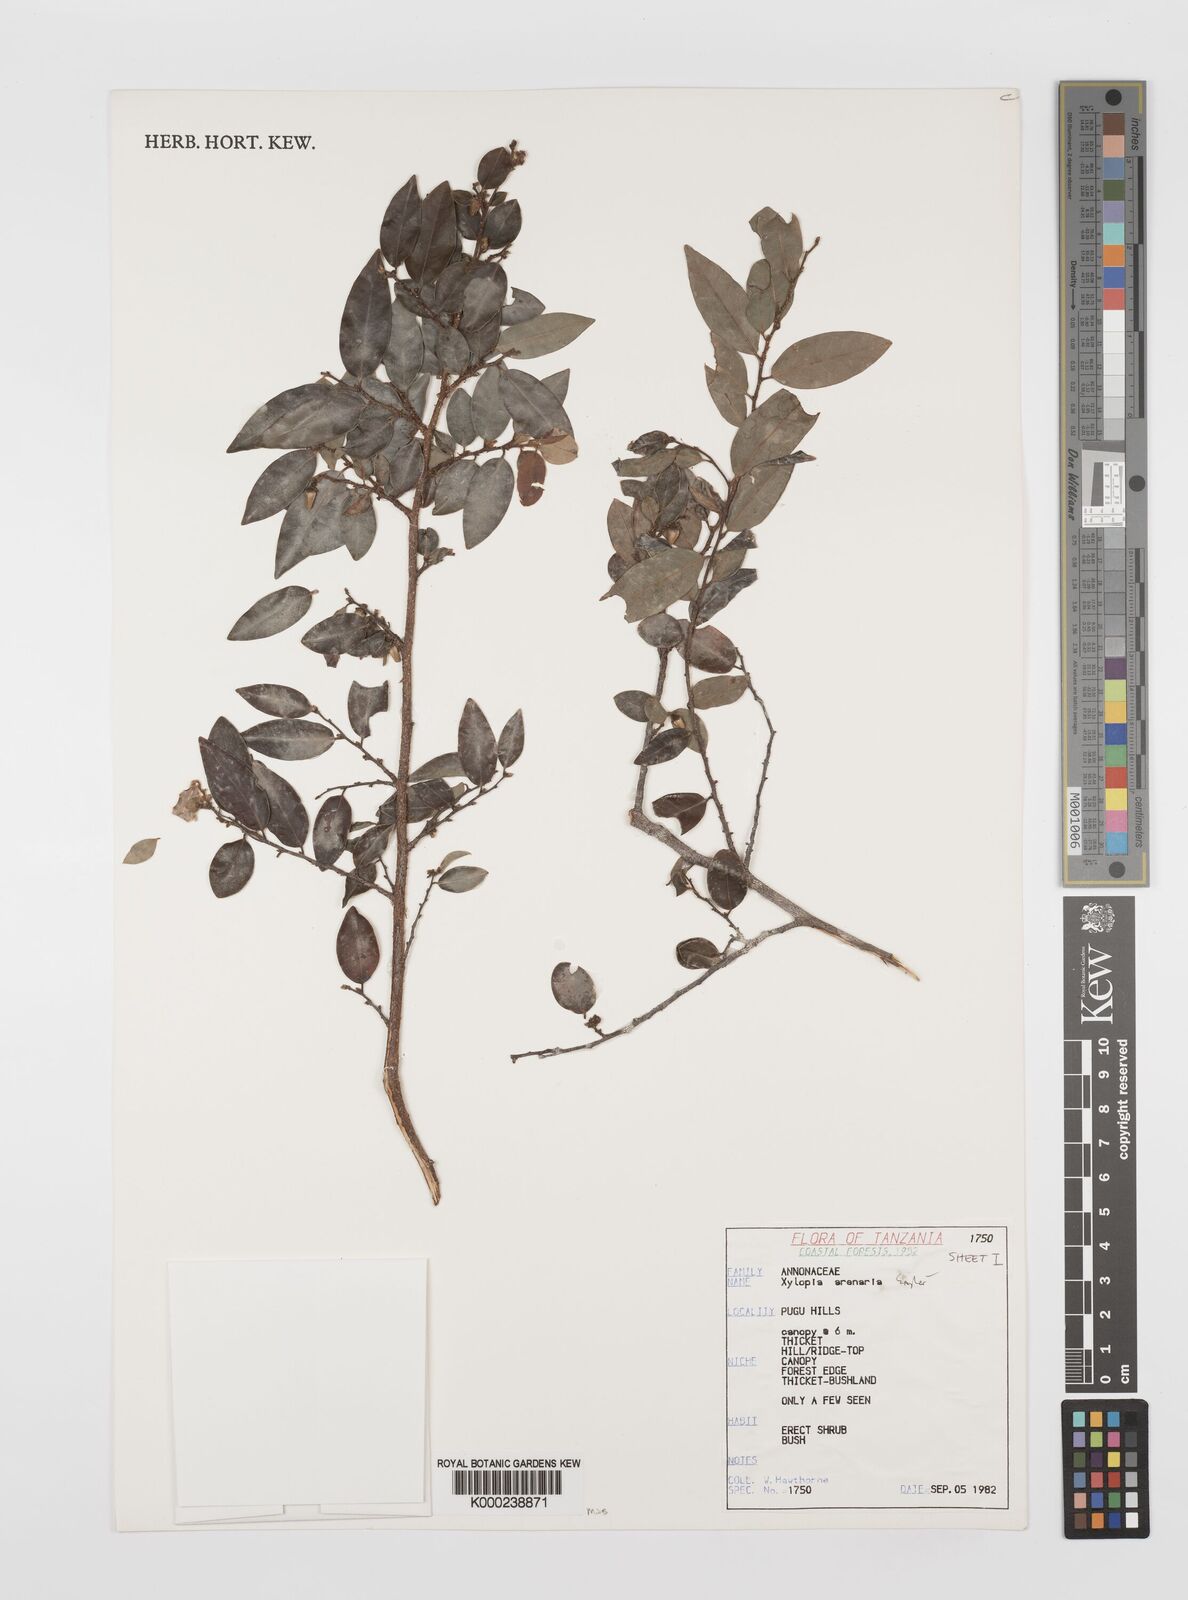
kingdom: Plantae
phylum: Tracheophyta
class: Magnoliopsida
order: Magnoliales
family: Annonaceae
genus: Xylopia
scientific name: Xylopia arenaria
